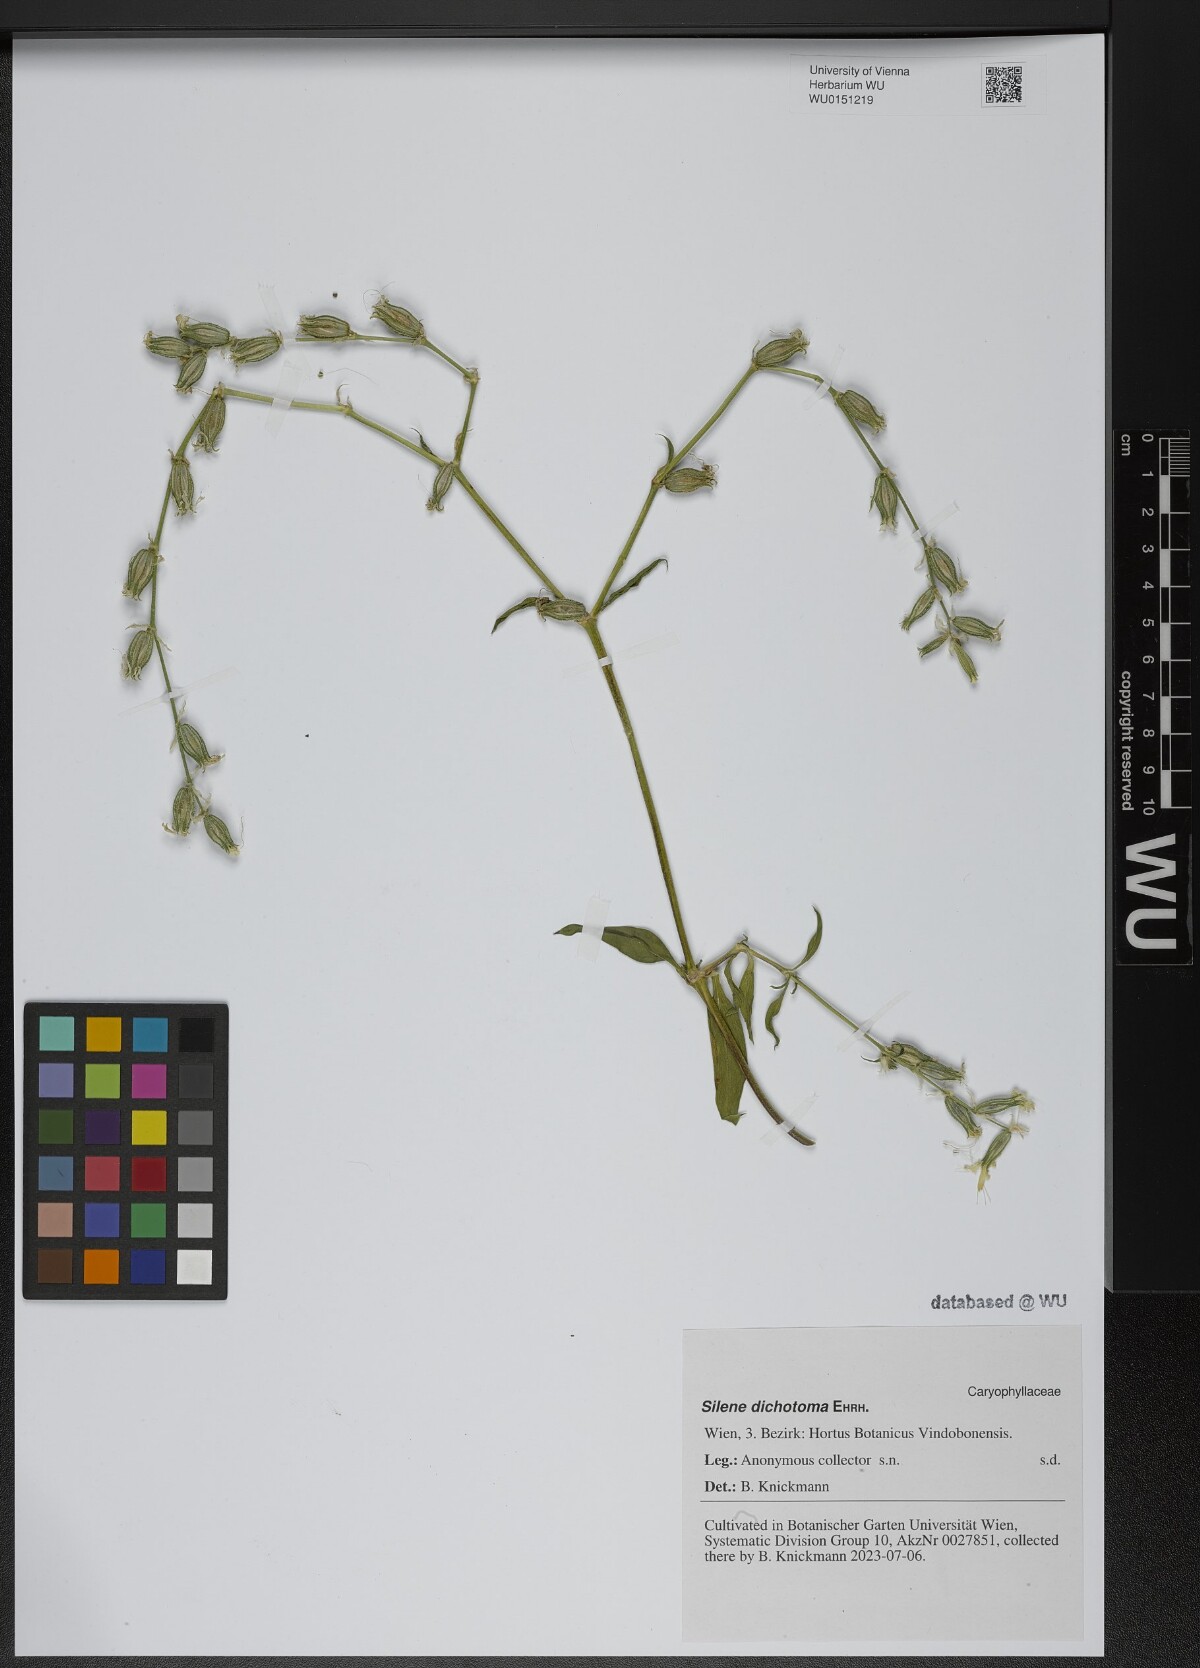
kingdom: Plantae
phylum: Tracheophyta
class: Magnoliopsida
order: Caryophyllales
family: Caryophyllaceae
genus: Silene
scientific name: Silene dichotoma
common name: Forked catchfly
